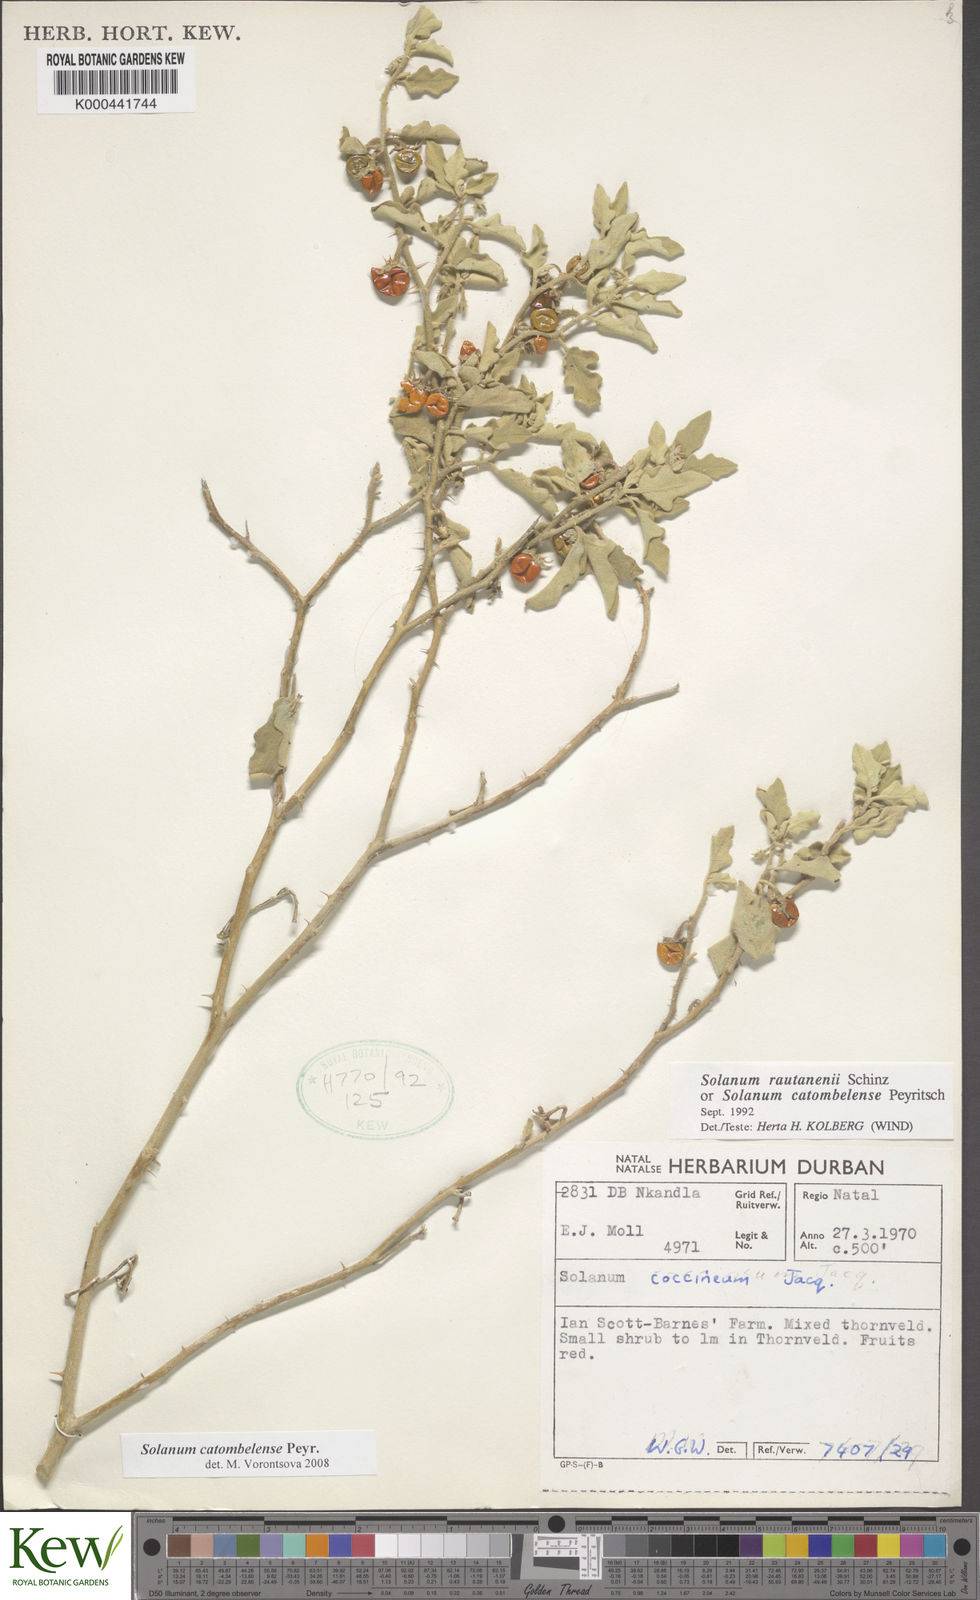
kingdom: Plantae
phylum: Tracheophyta
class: Magnoliopsida
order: Solanales
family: Solanaceae
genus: Solanum
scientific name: Solanum catombelense
